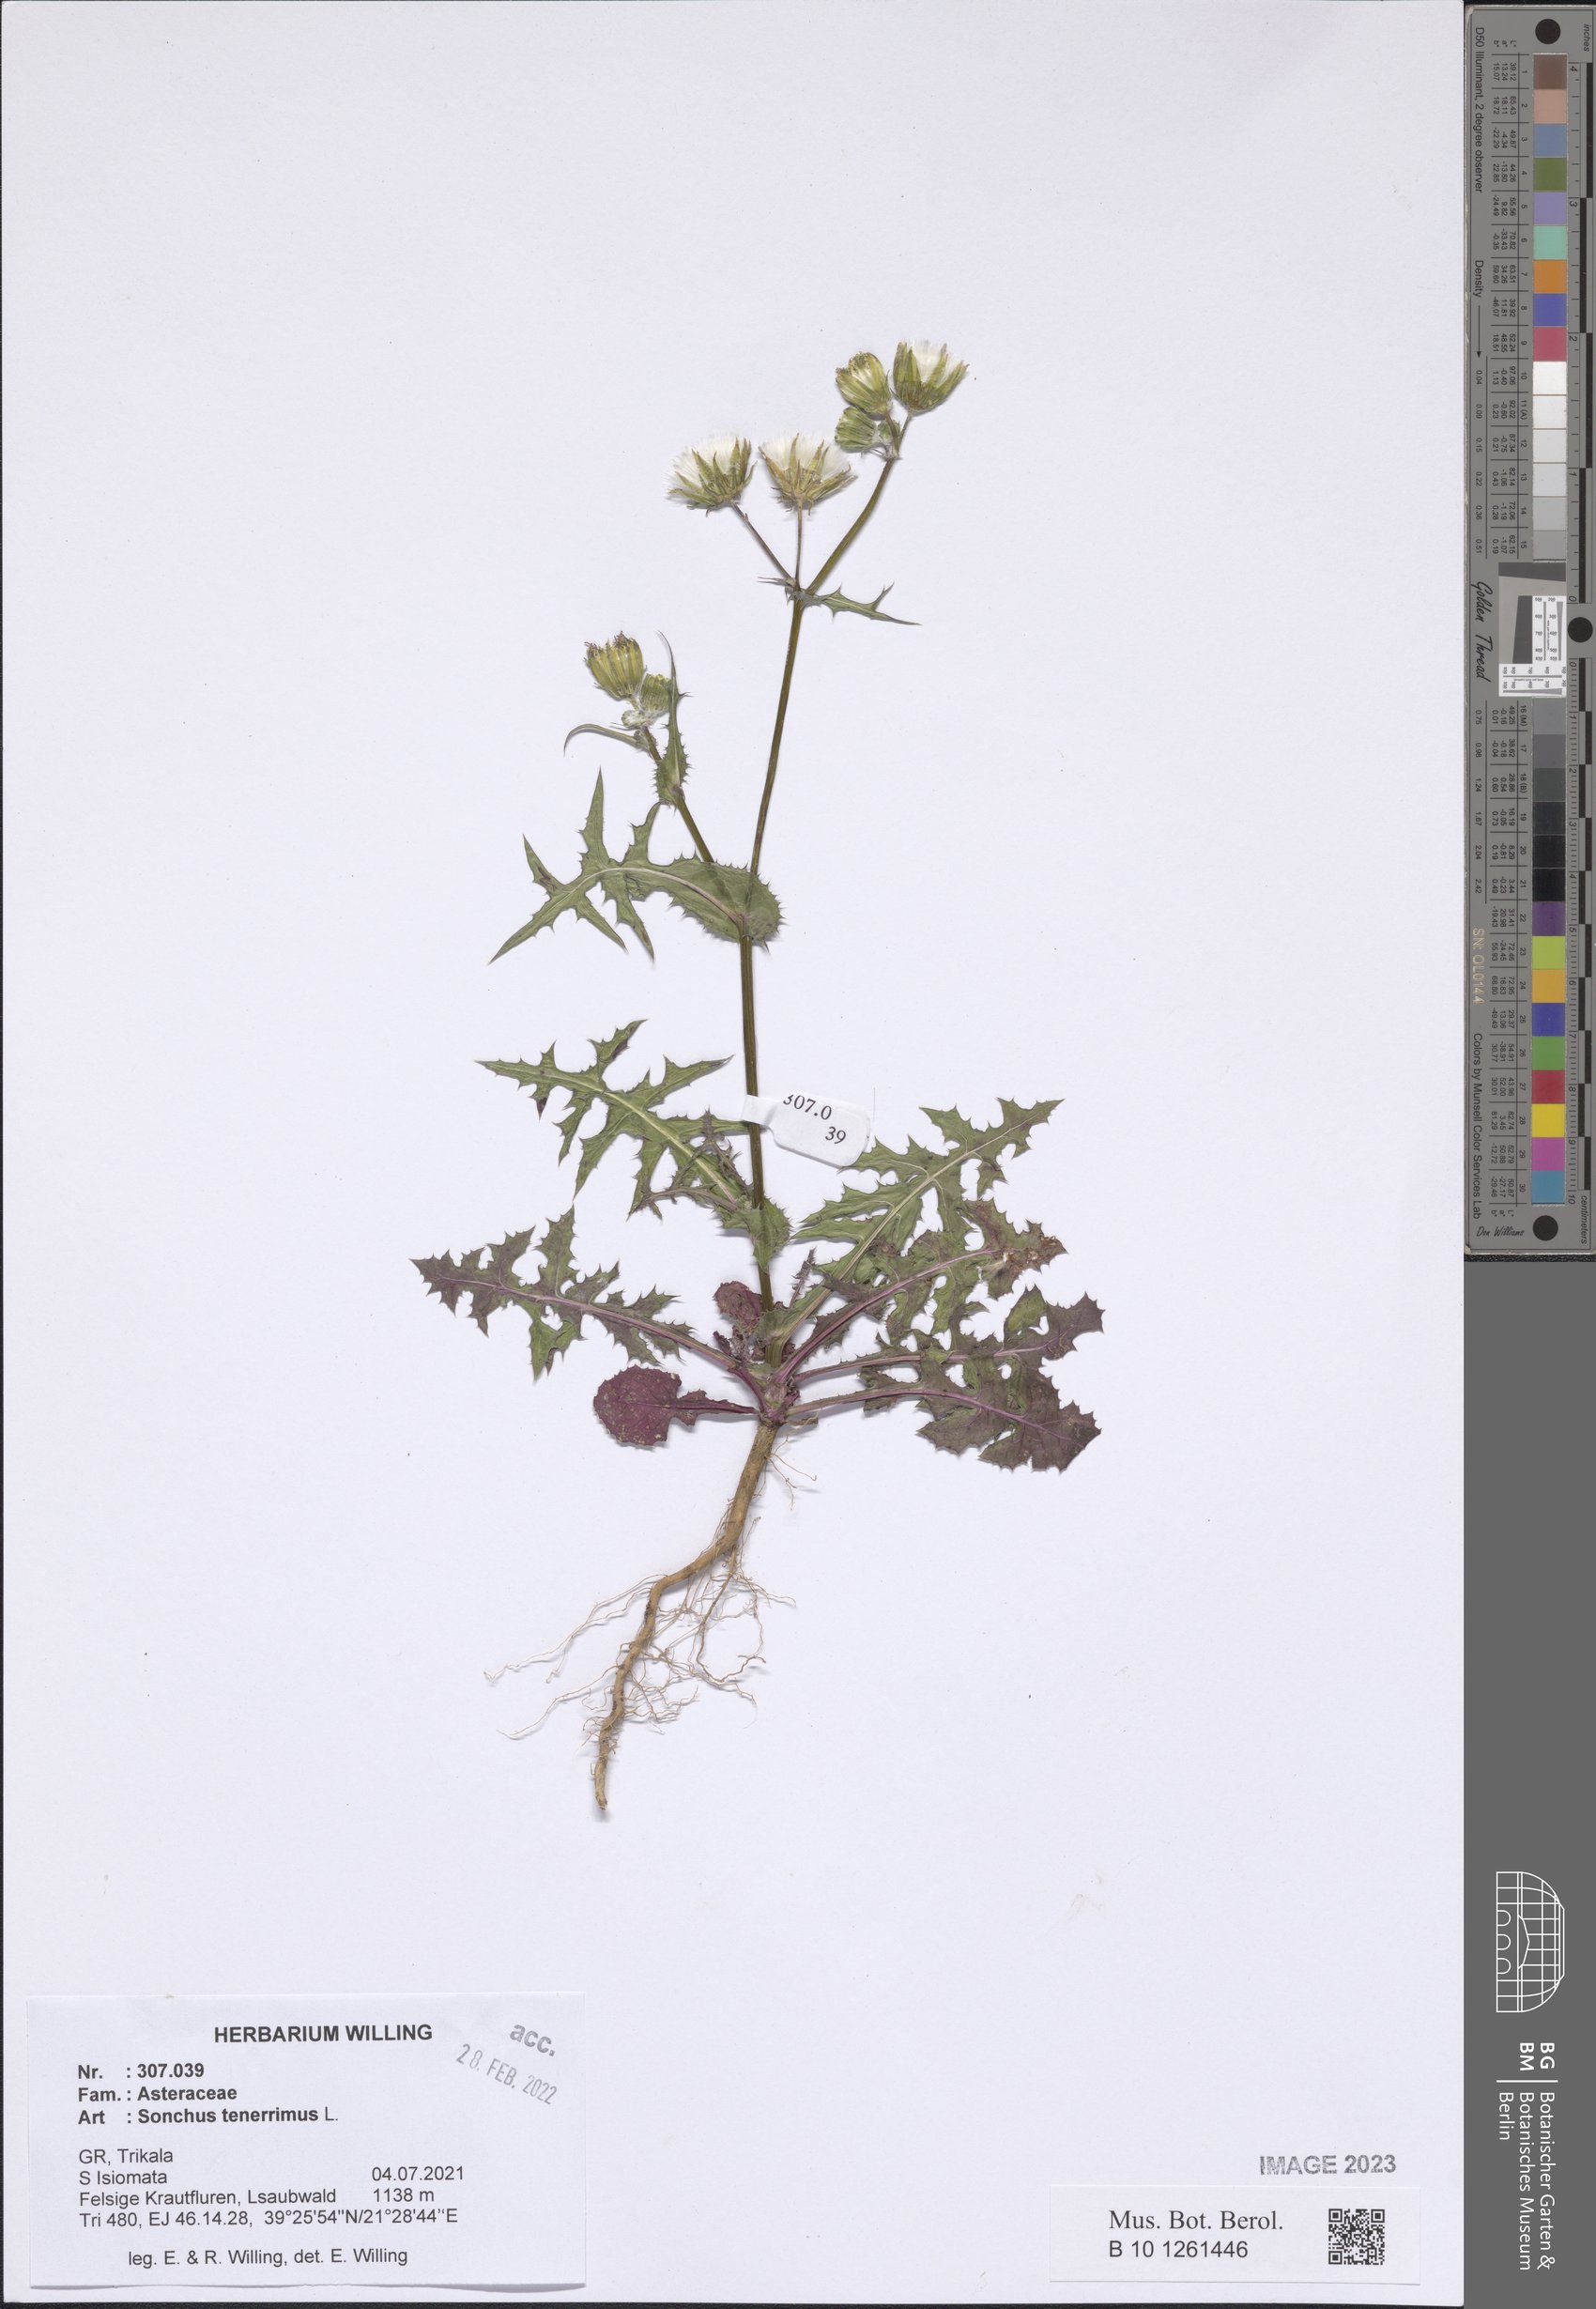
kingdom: Plantae
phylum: Tracheophyta
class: Magnoliopsida
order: Asterales
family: Asteraceae
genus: Sonchus
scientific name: Sonchus tenerrimus
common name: Clammy sowthistle
